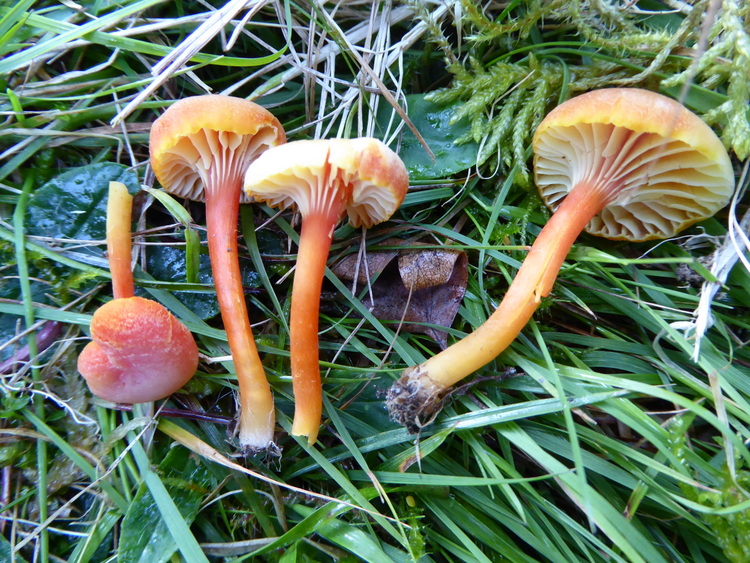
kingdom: Fungi
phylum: Basidiomycota
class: Agaricomycetes
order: Agaricales
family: Hygrophoraceae
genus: Hygrocybe
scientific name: Hygrocybe cantharellus
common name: kantarel-vokshat
